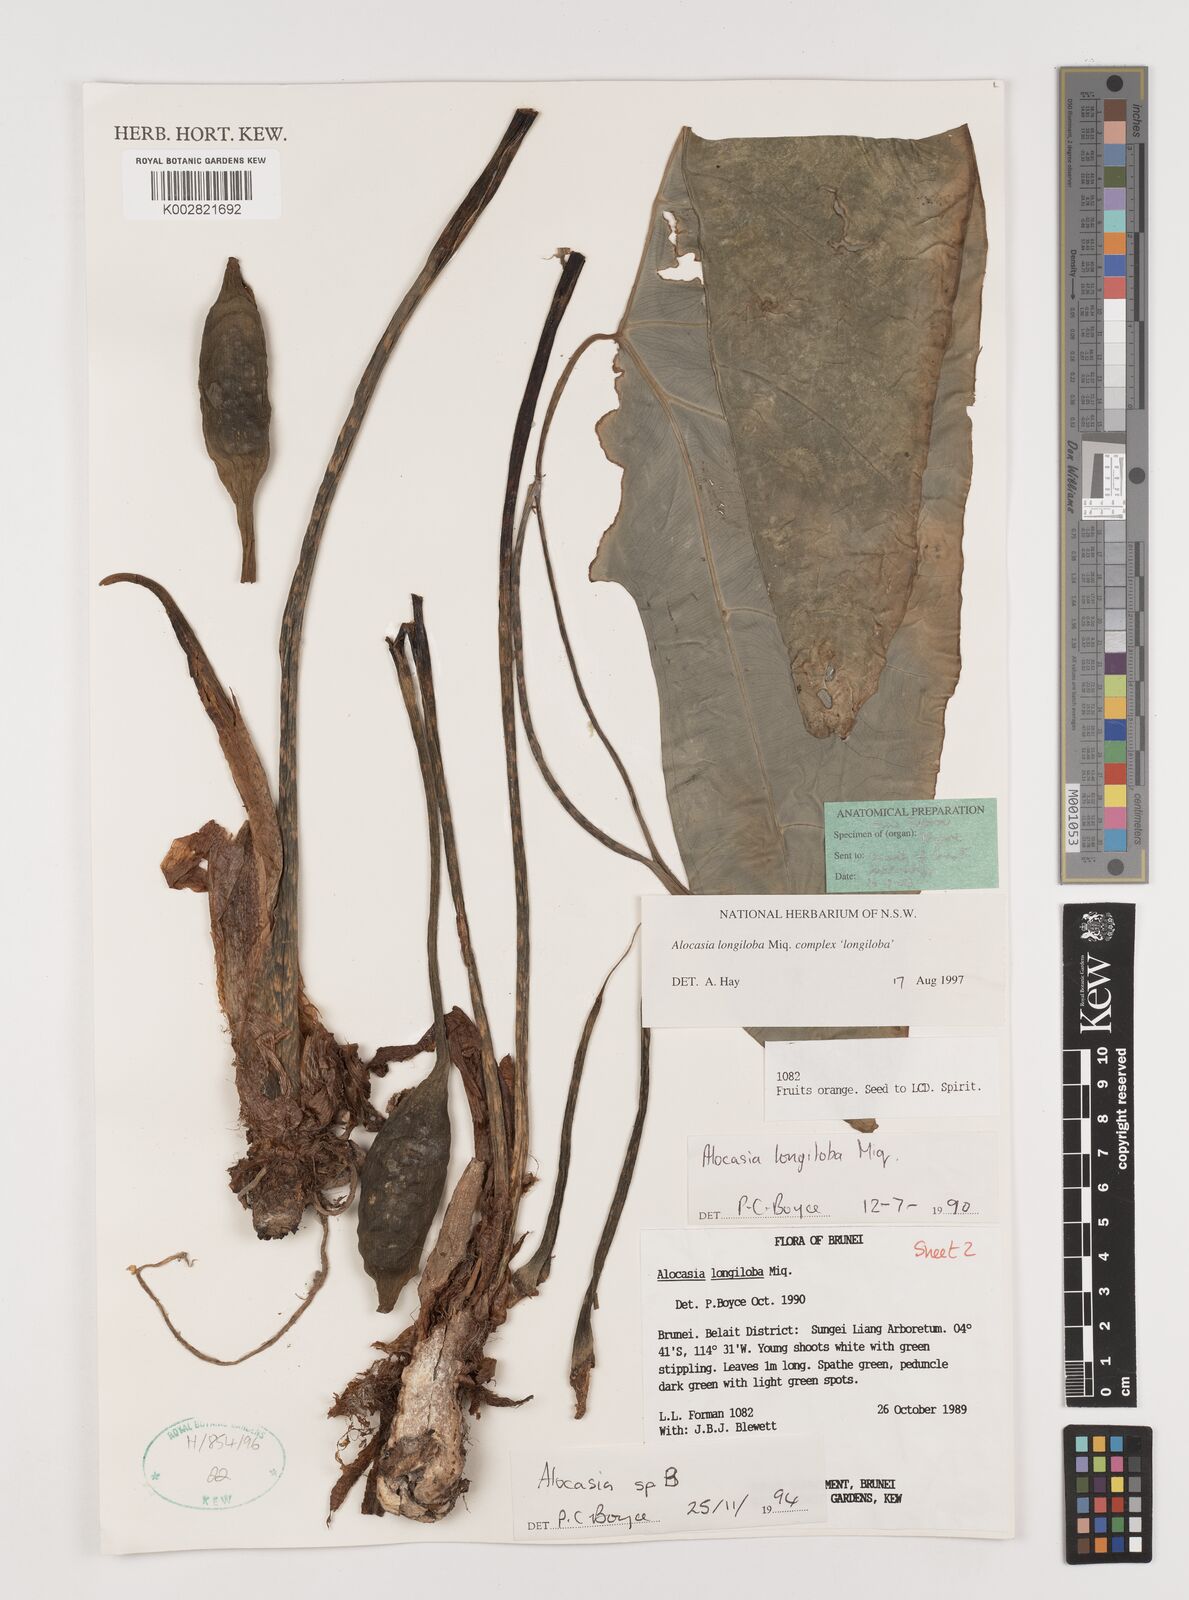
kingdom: Plantae
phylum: Tracheophyta
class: Liliopsida
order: Alismatales
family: Araceae
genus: Alocasia
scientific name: Alocasia longiloba
